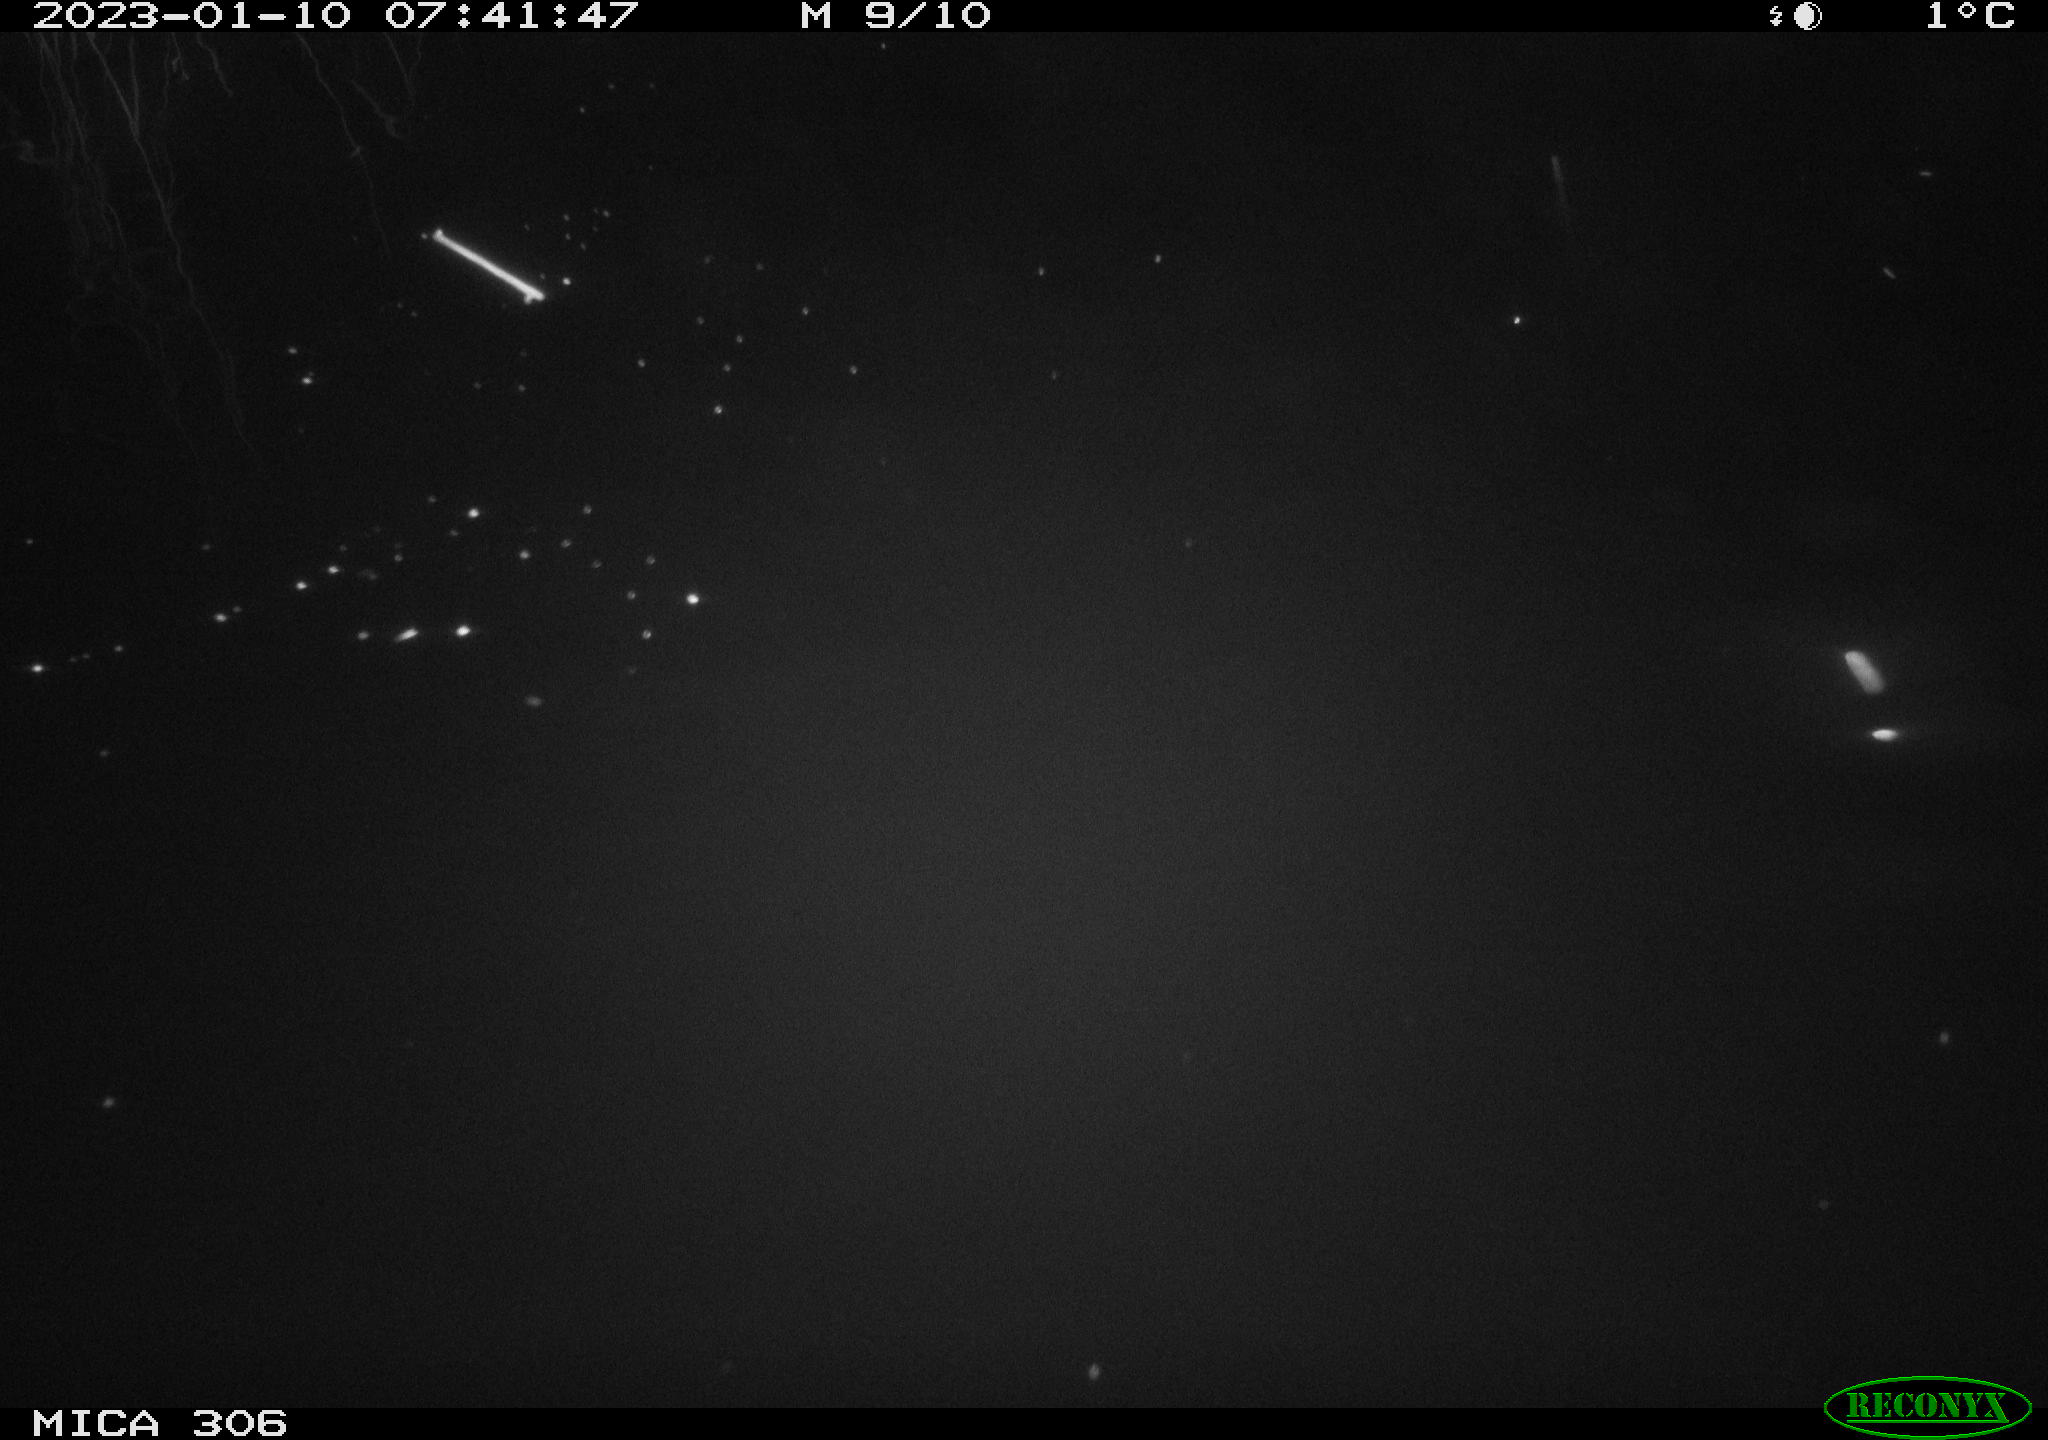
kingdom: Animalia
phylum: Chordata
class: Mammalia
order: Rodentia
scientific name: Rodentia
